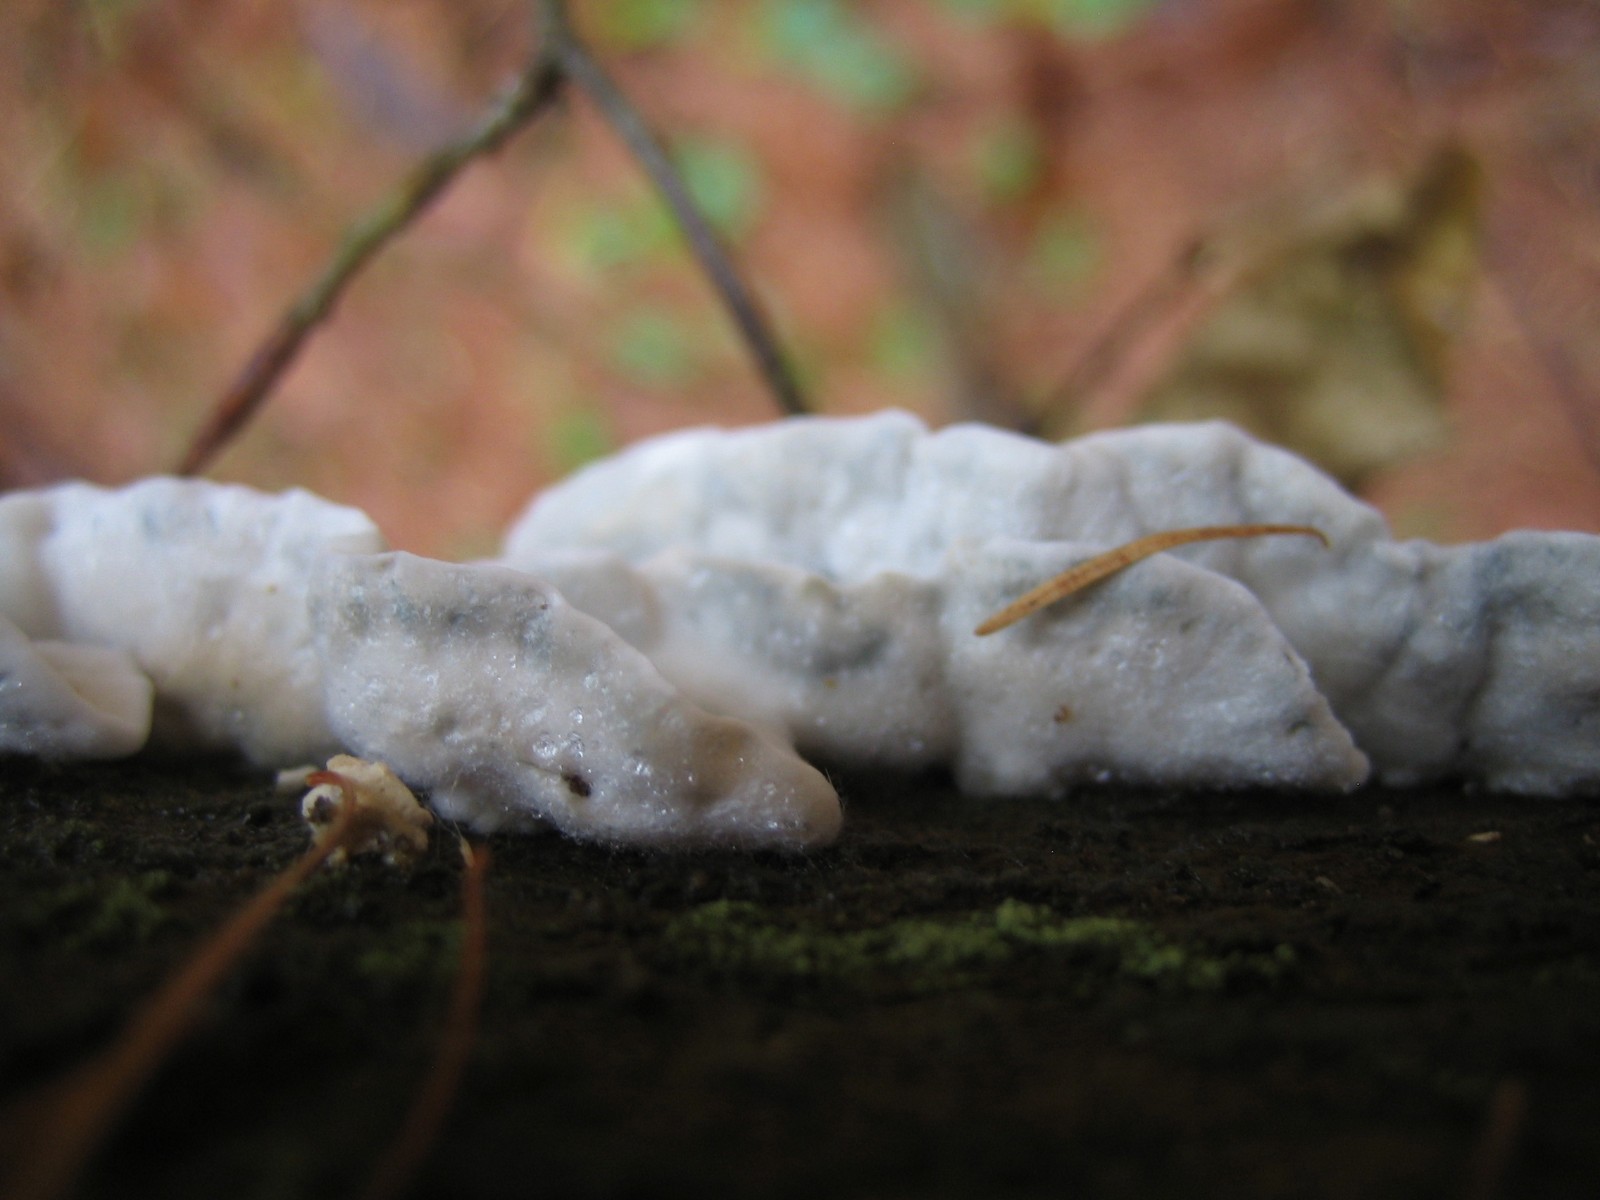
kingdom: Fungi
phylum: Basidiomycota
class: Agaricomycetes
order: Polyporales
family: Polyporaceae
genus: Cyanosporus
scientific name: Cyanosporus caesius
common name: blålig kødporesvamp
